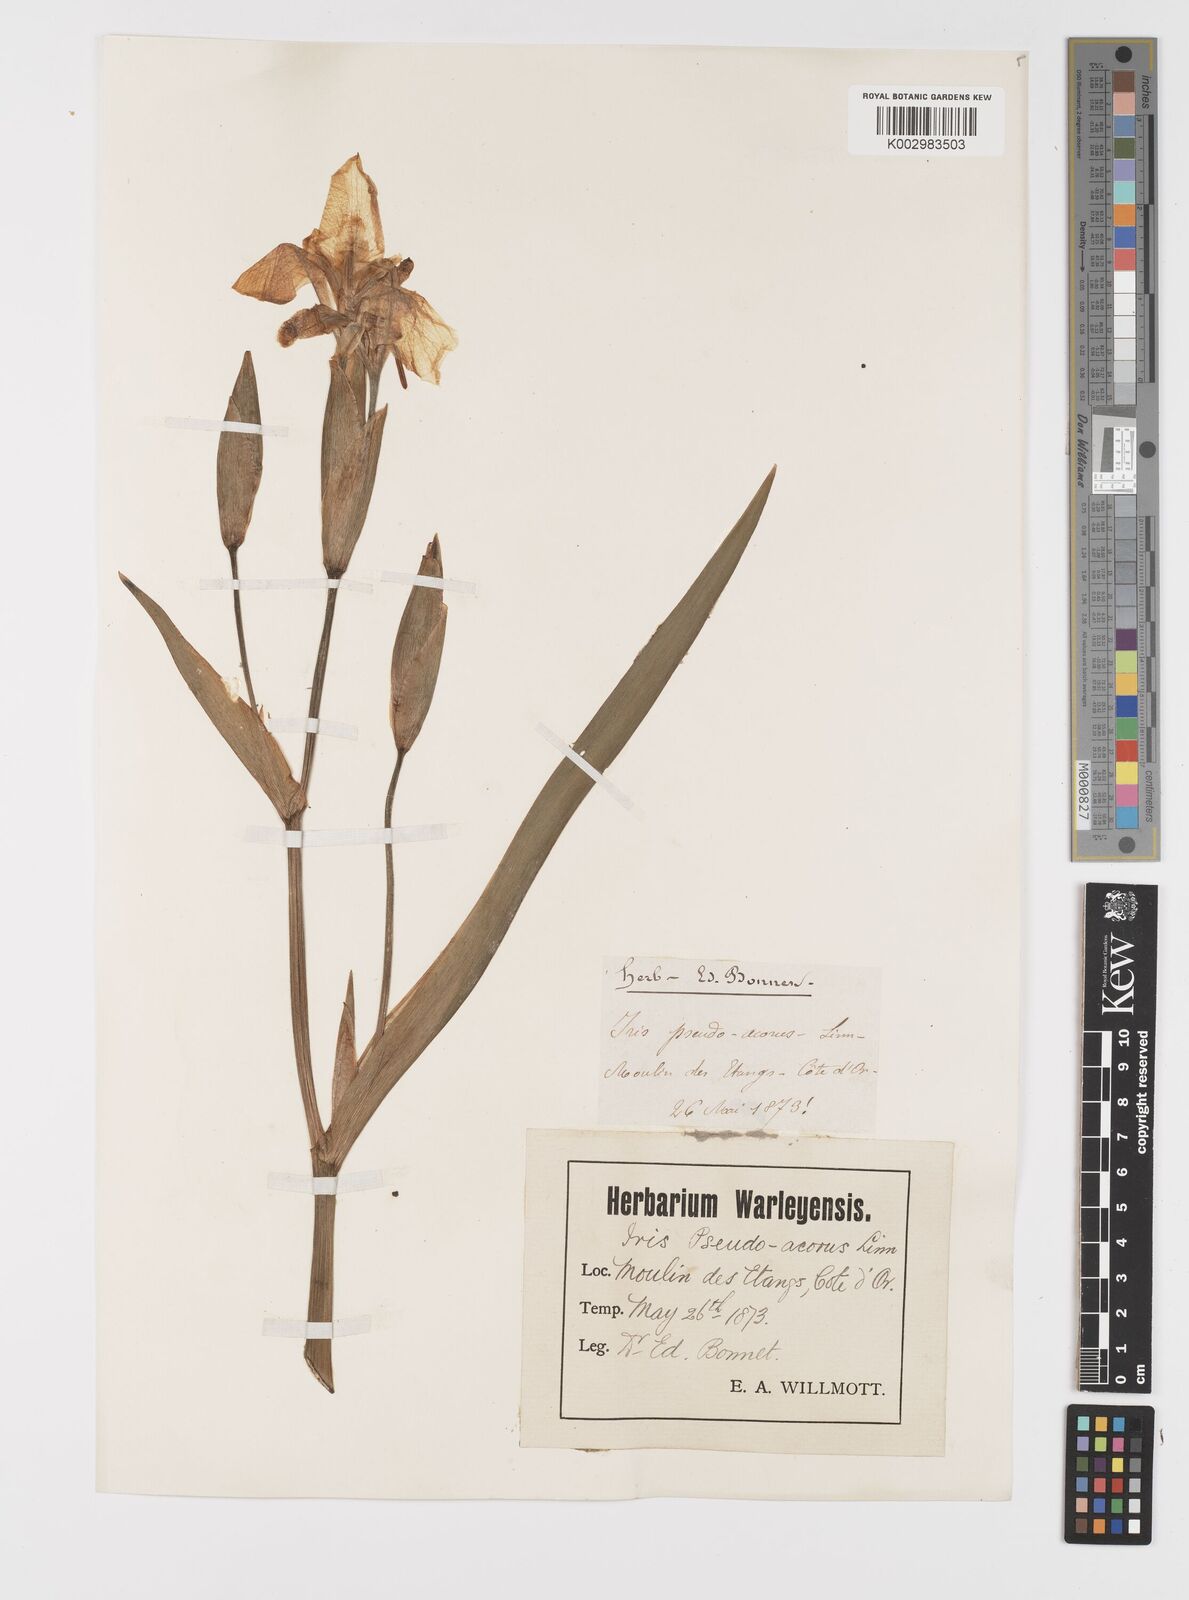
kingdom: Plantae
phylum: Tracheophyta
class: Liliopsida
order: Asparagales
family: Iridaceae
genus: Iris
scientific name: Iris pseudacorus
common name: Yellow flag
